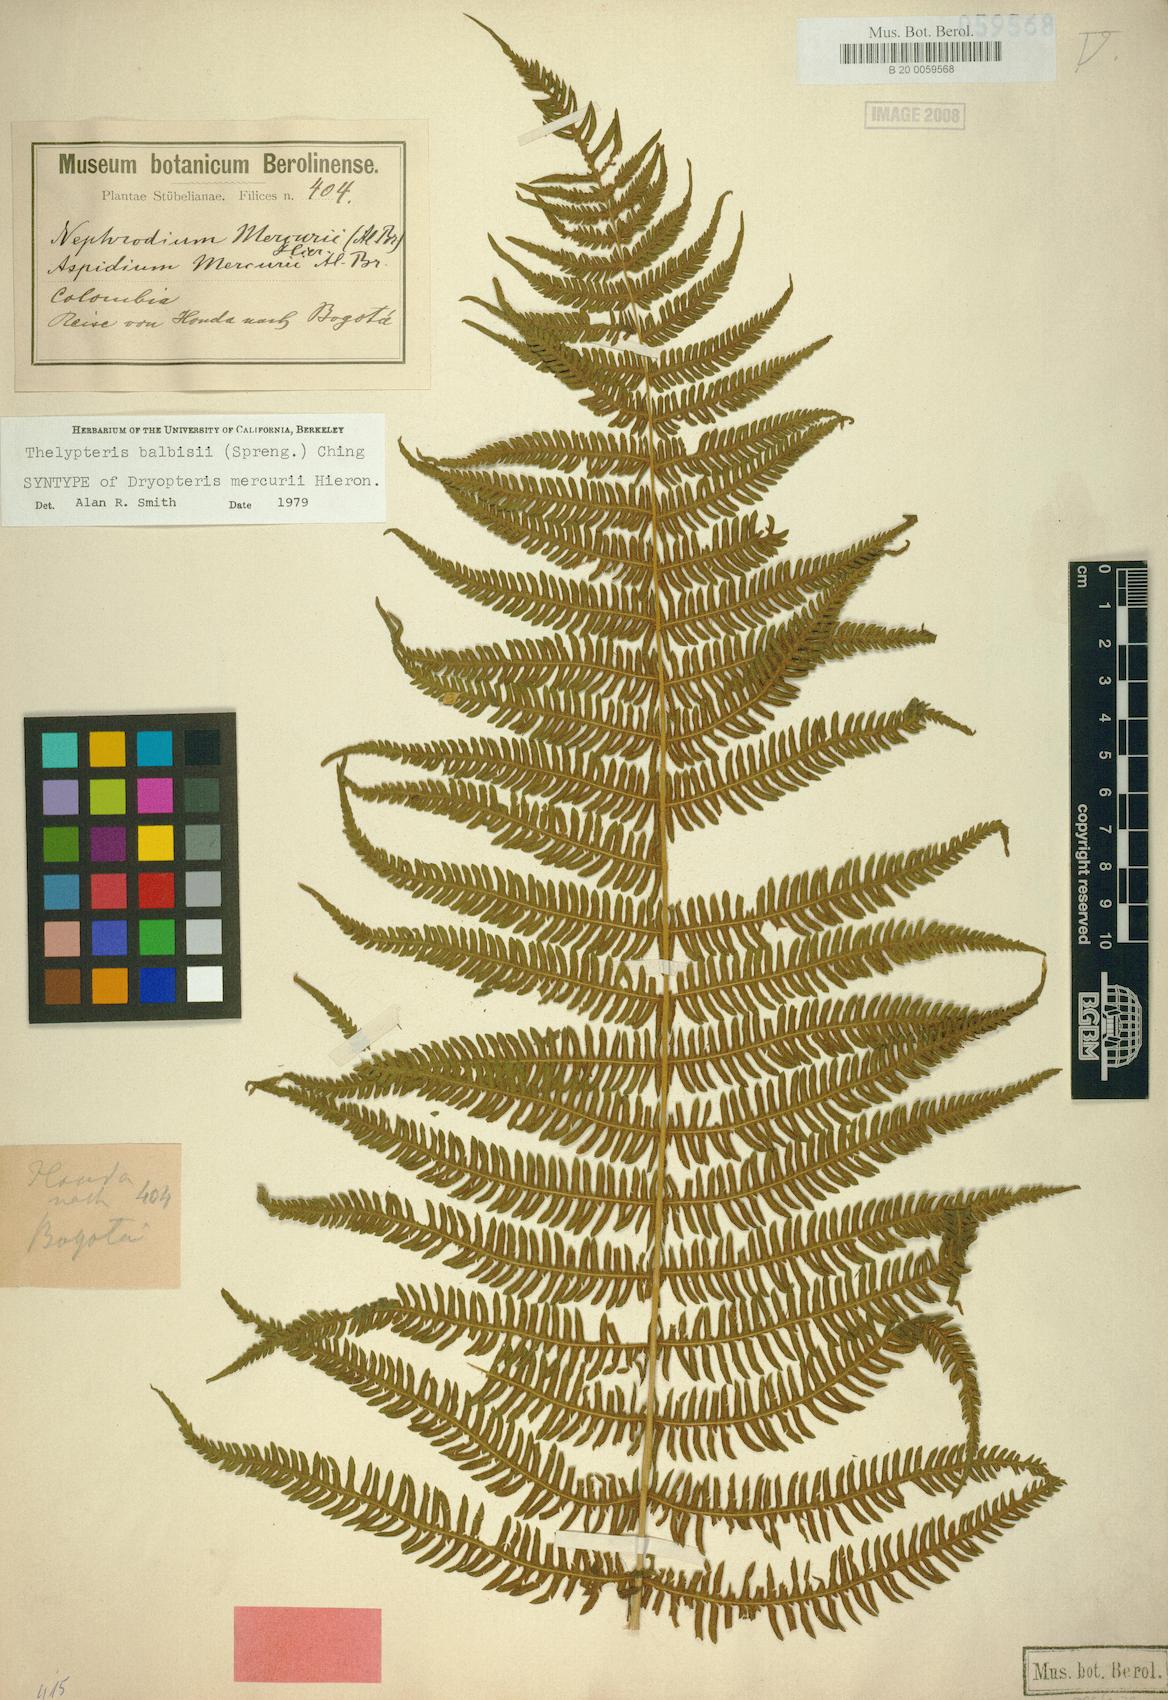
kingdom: Plantae
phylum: Tracheophyta
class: Polypodiopsida
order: Polypodiales
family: Thelypteridaceae
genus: Amauropelta
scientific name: Amauropelta balbisii
